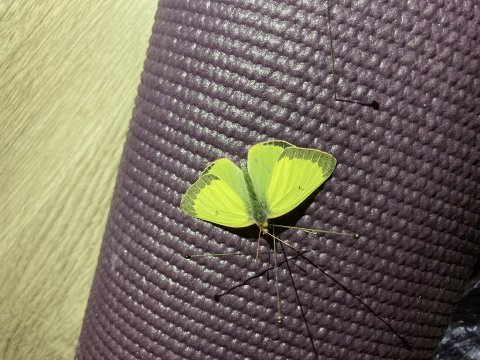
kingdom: Animalia
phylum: Arthropoda
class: Insecta
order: Lepidoptera
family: Pieridae
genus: Colias
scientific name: Colias philodice
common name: Clouded Sulphur
